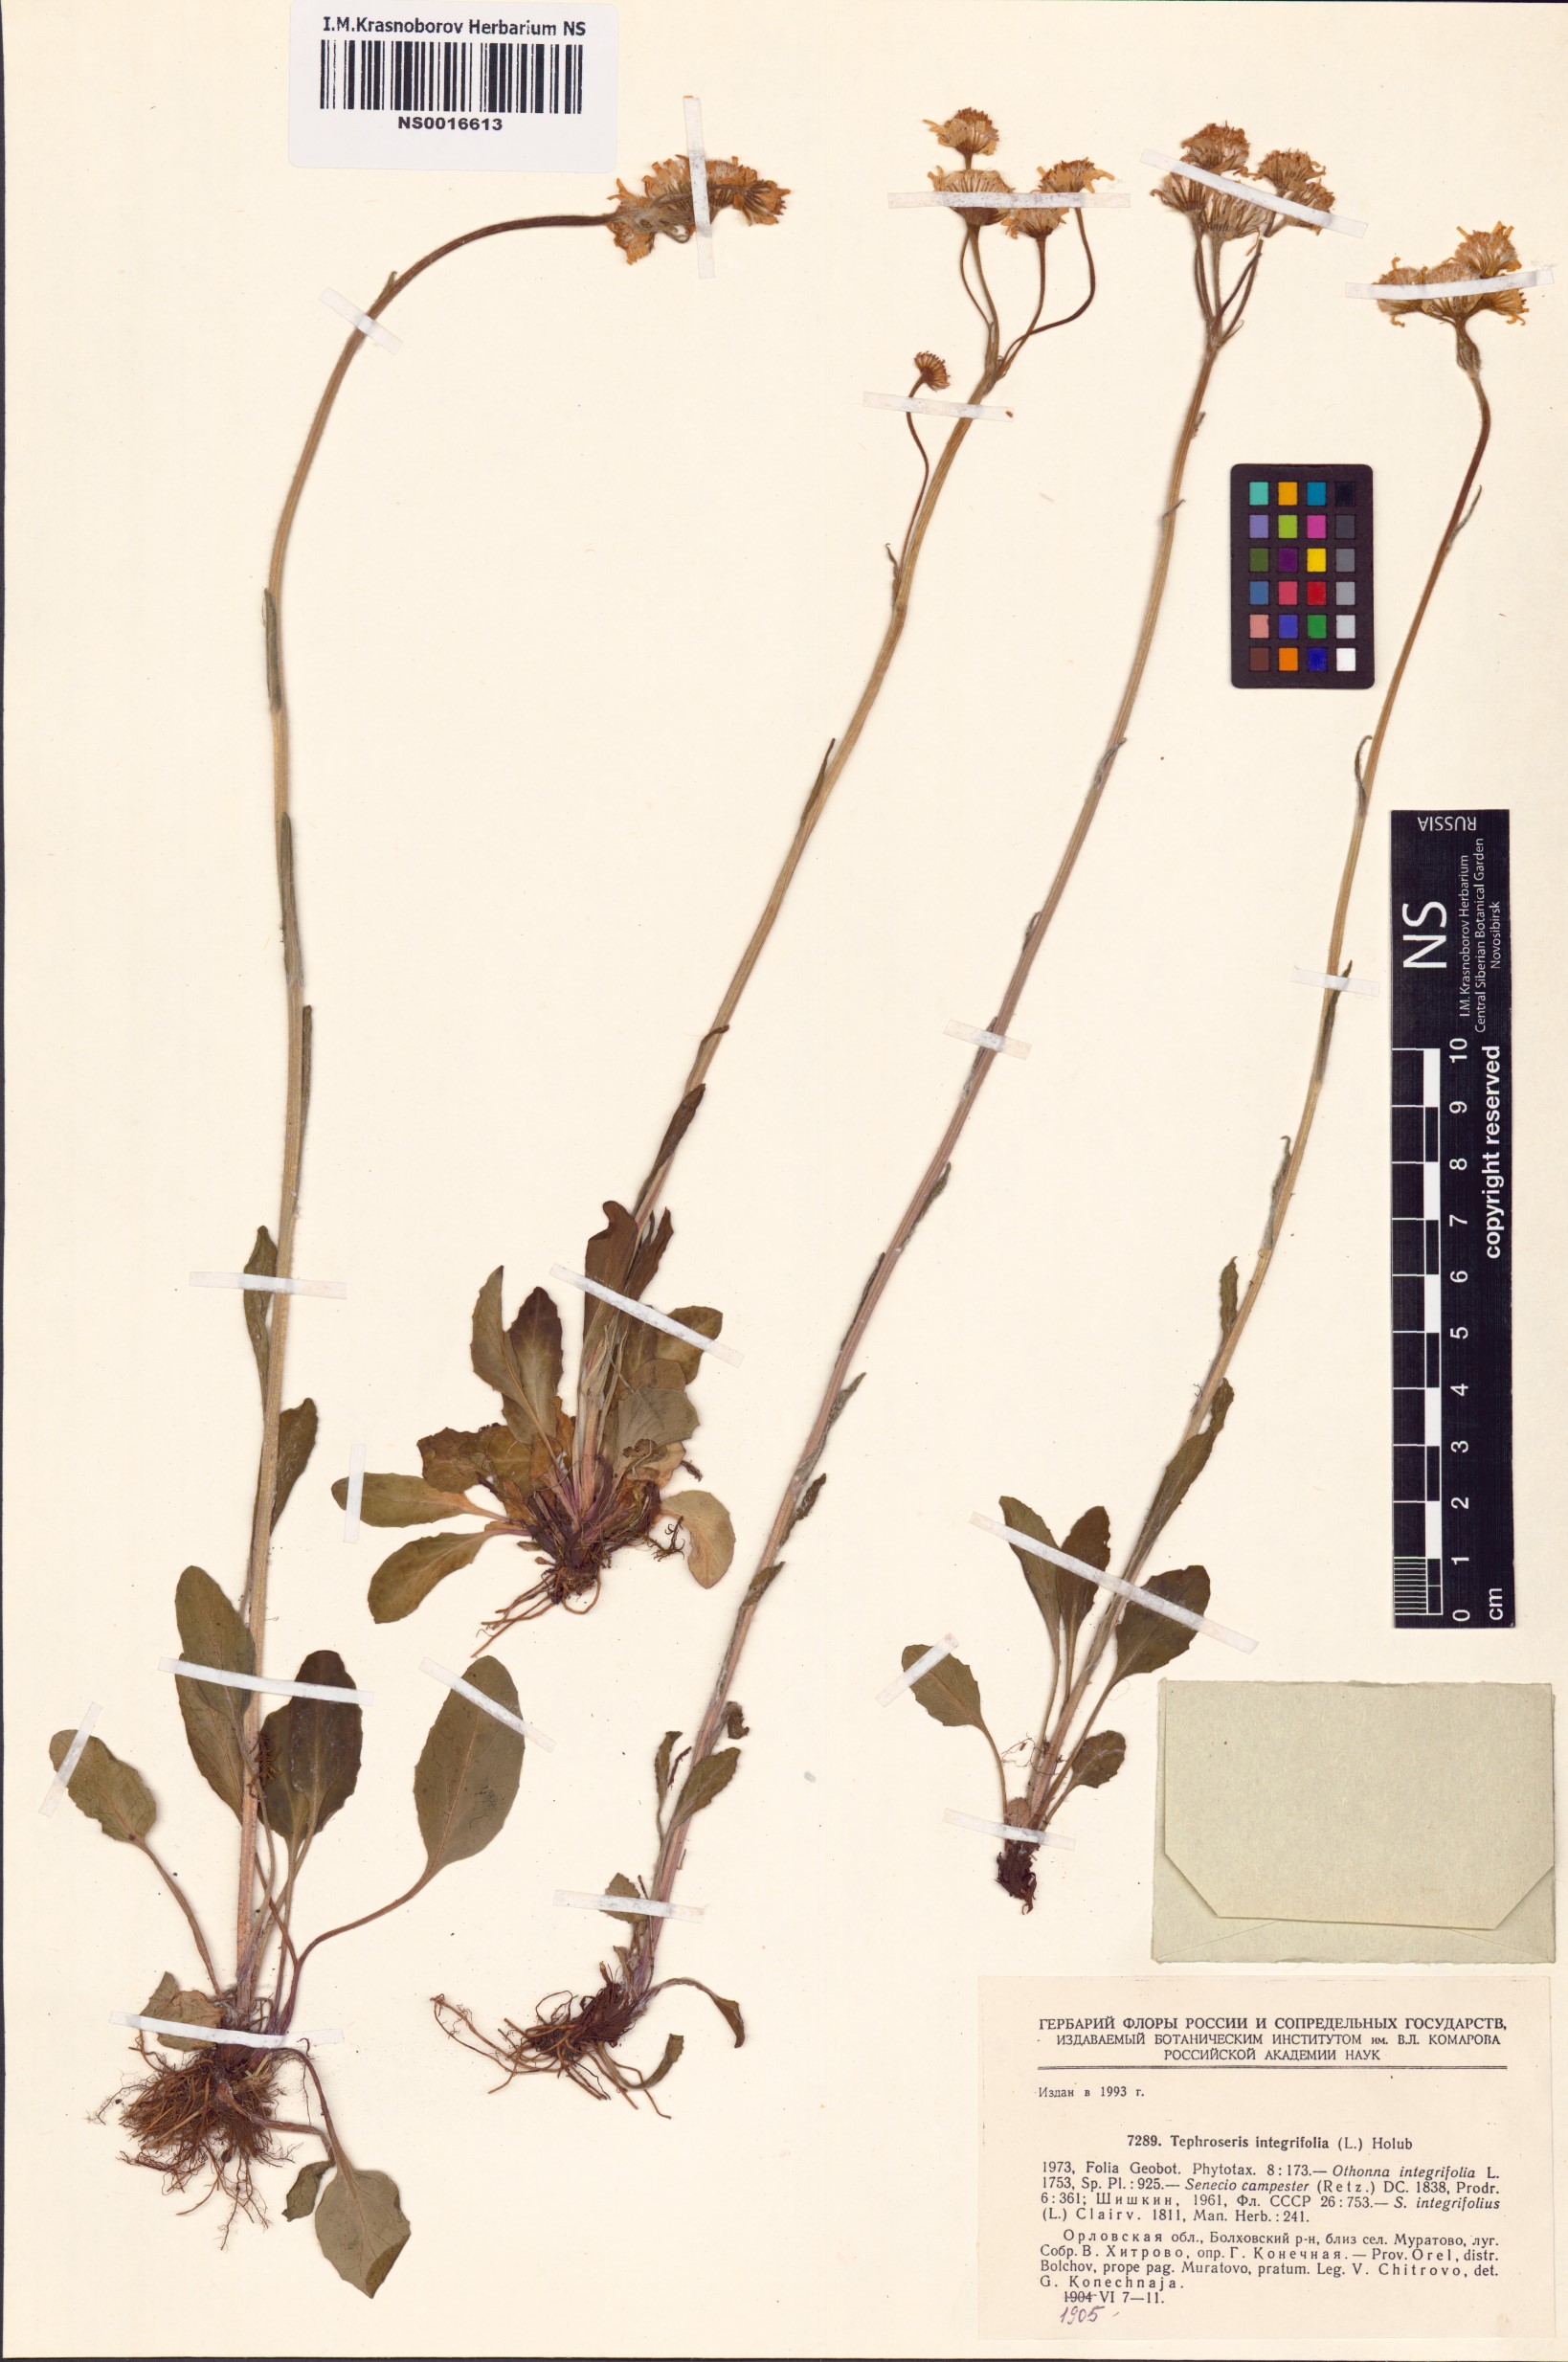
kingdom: Plantae
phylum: Tracheophyta
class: Magnoliopsida
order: Asterales
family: Asteraceae
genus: Tephroseris
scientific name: Tephroseris integrifolia
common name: Field fleawort
